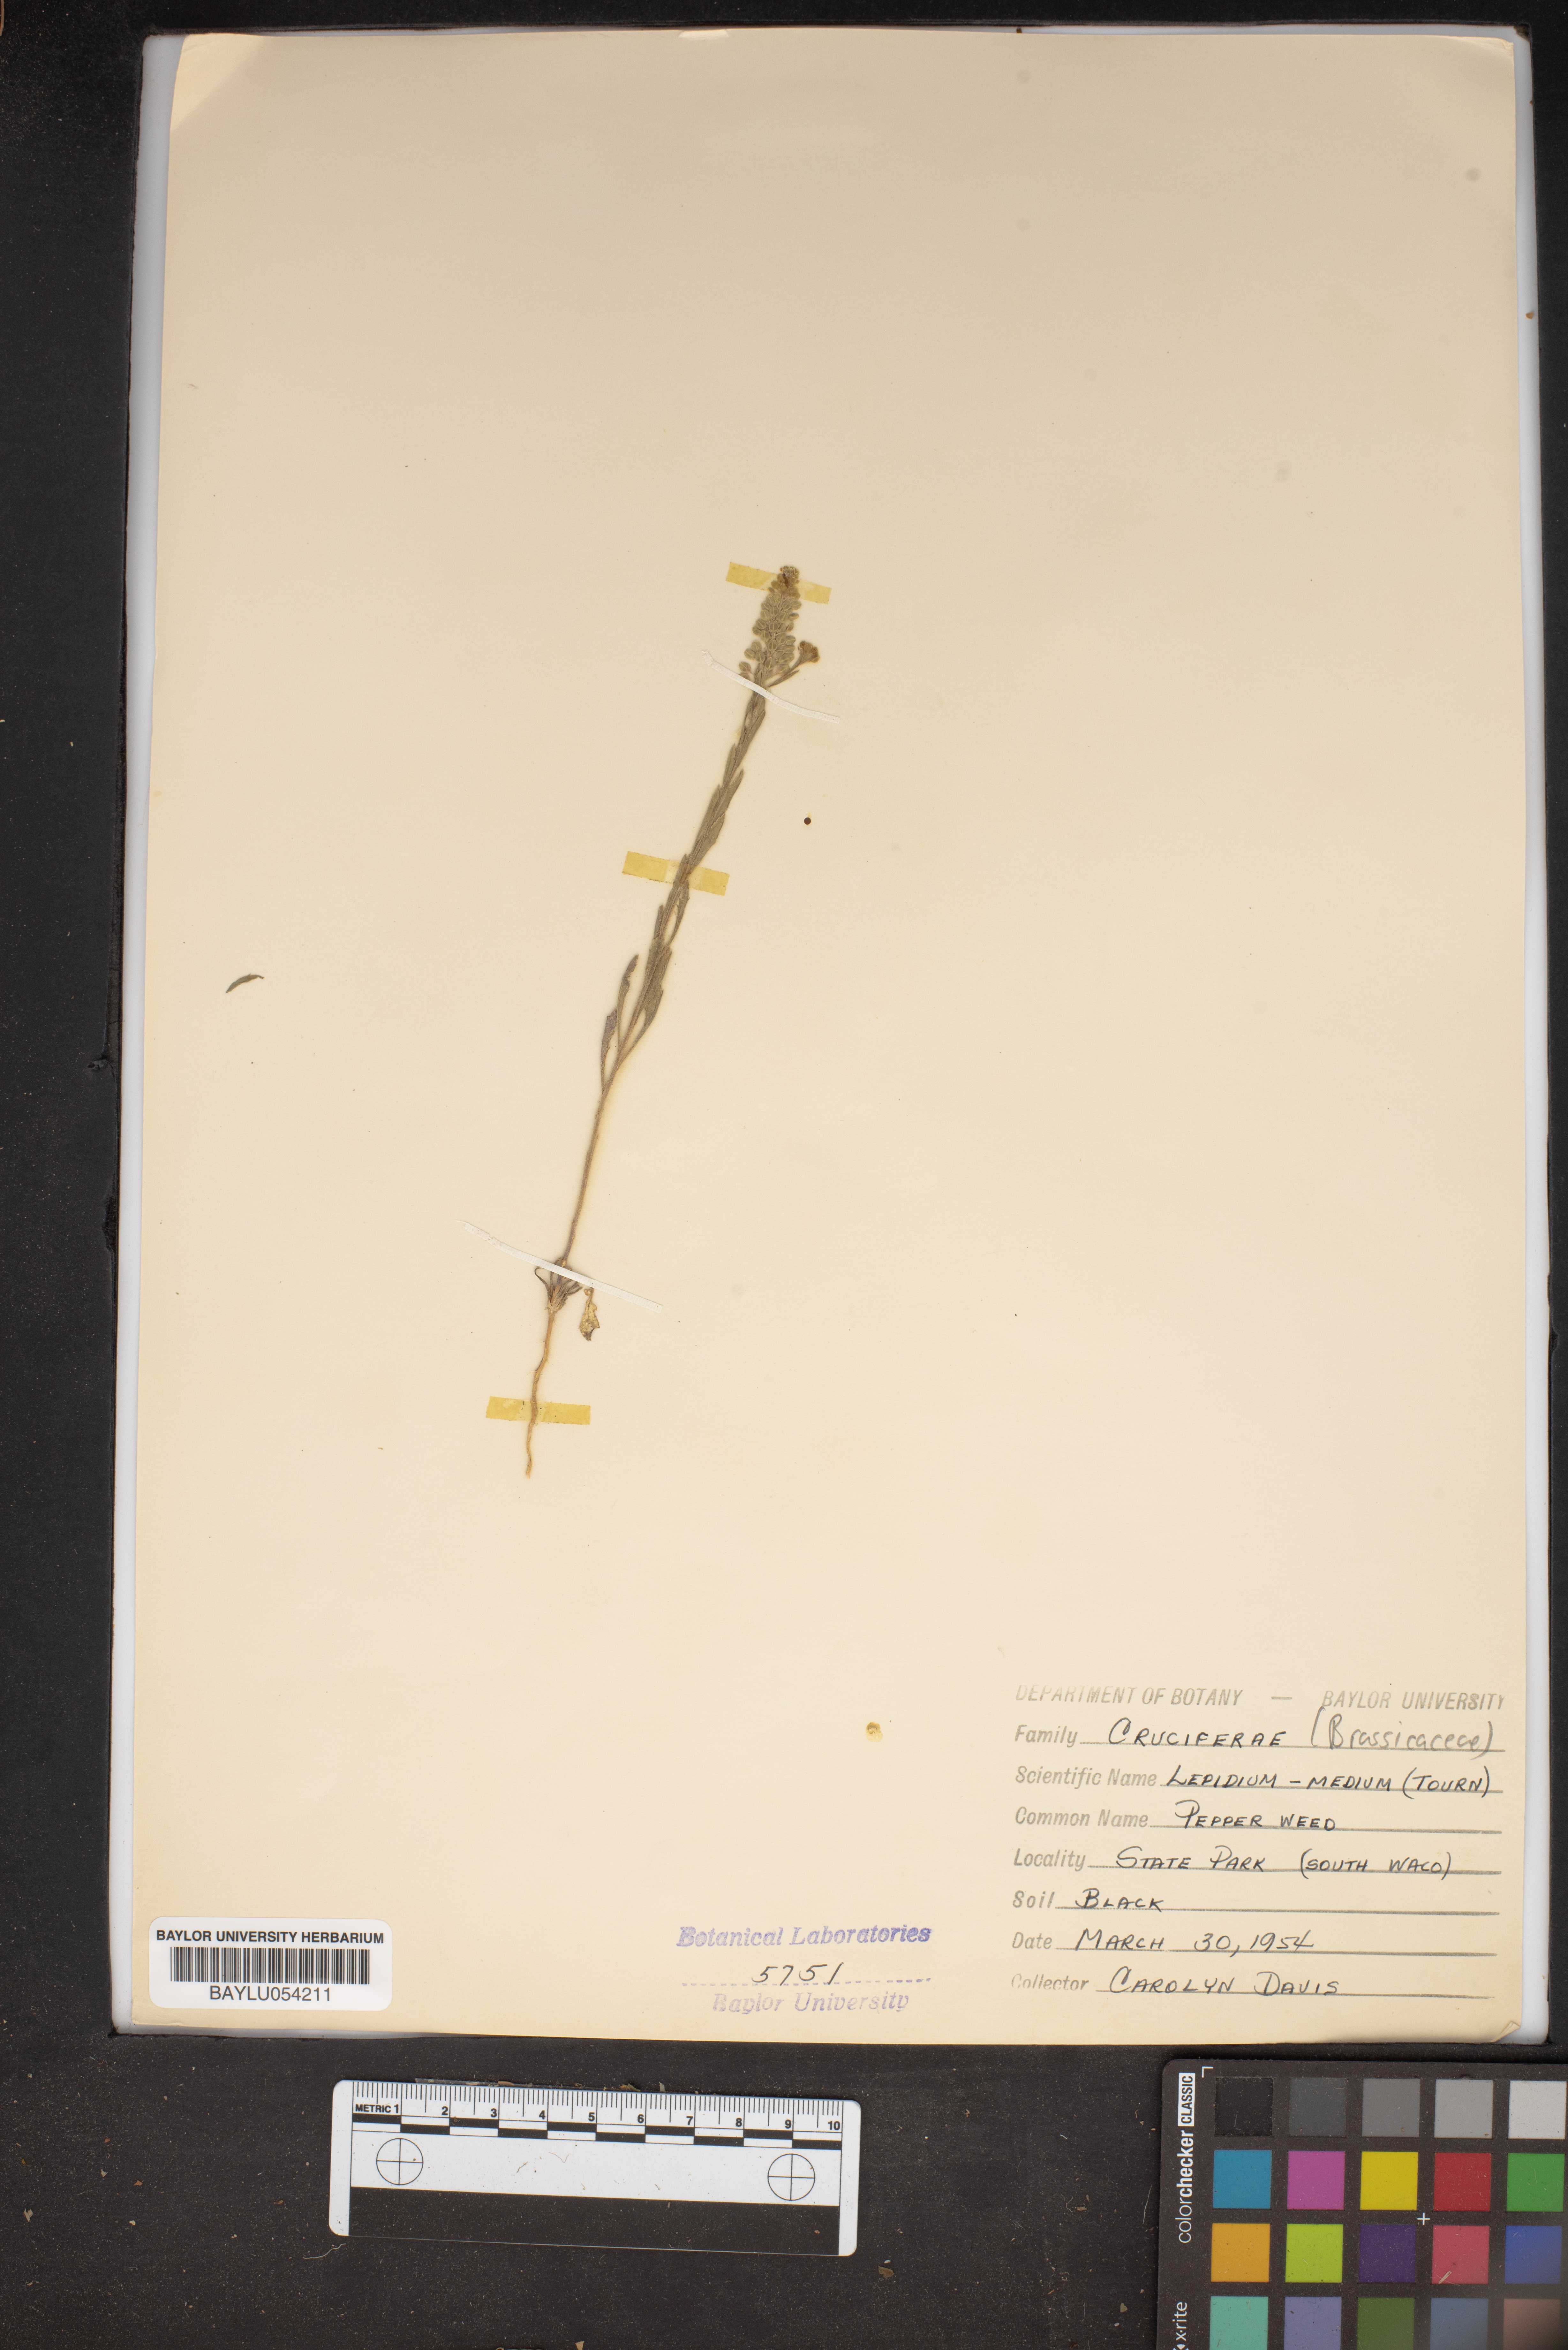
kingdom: Plantae
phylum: Tracheophyta
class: Magnoliopsida
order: Brassicales
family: Brassicaceae
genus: Lepidium
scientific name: Lepidium virginicum
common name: Least pepperwort
